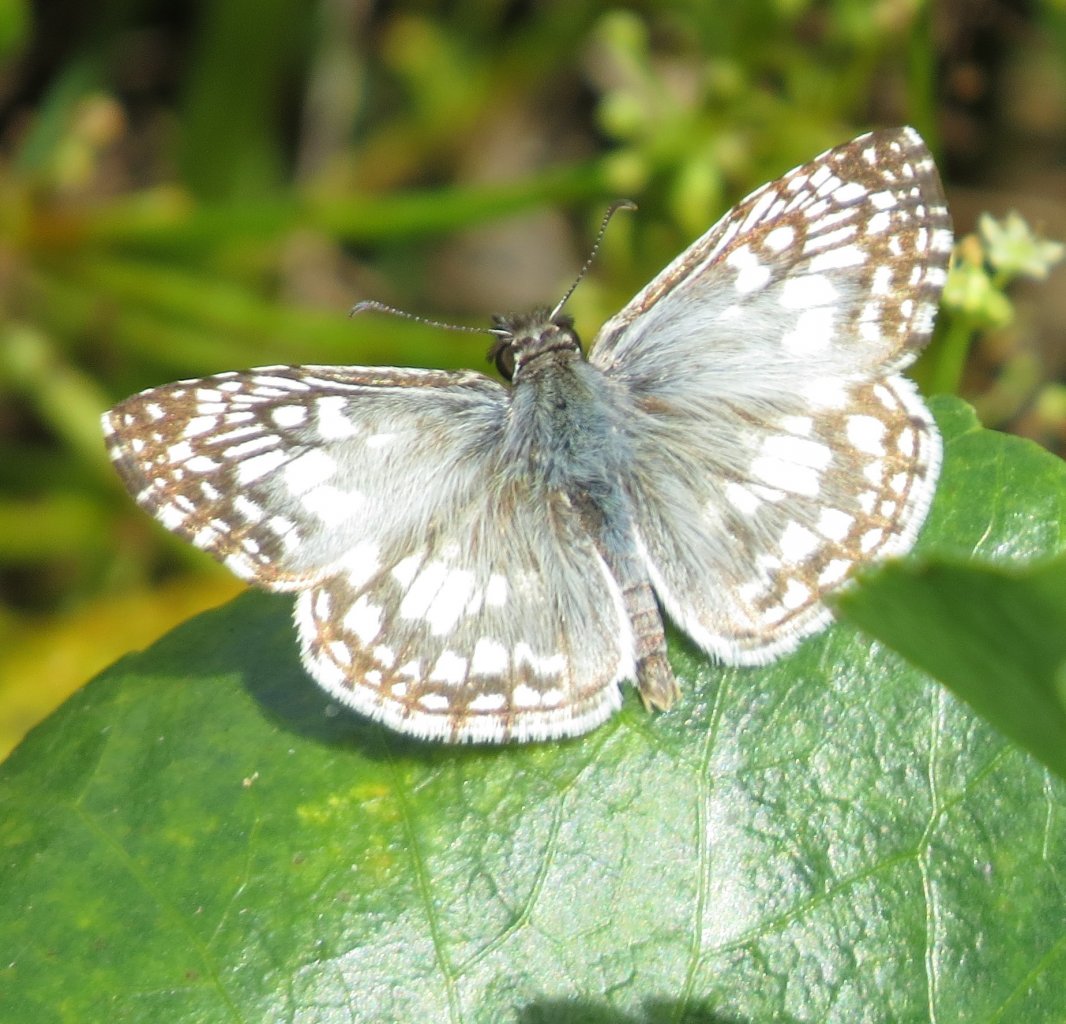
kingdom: Animalia
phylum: Arthropoda
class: Insecta
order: Lepidoptera
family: Hesperiidae
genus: Pyrgus
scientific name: Pyrgus oileus
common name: Tropical Checkered-Skipper
